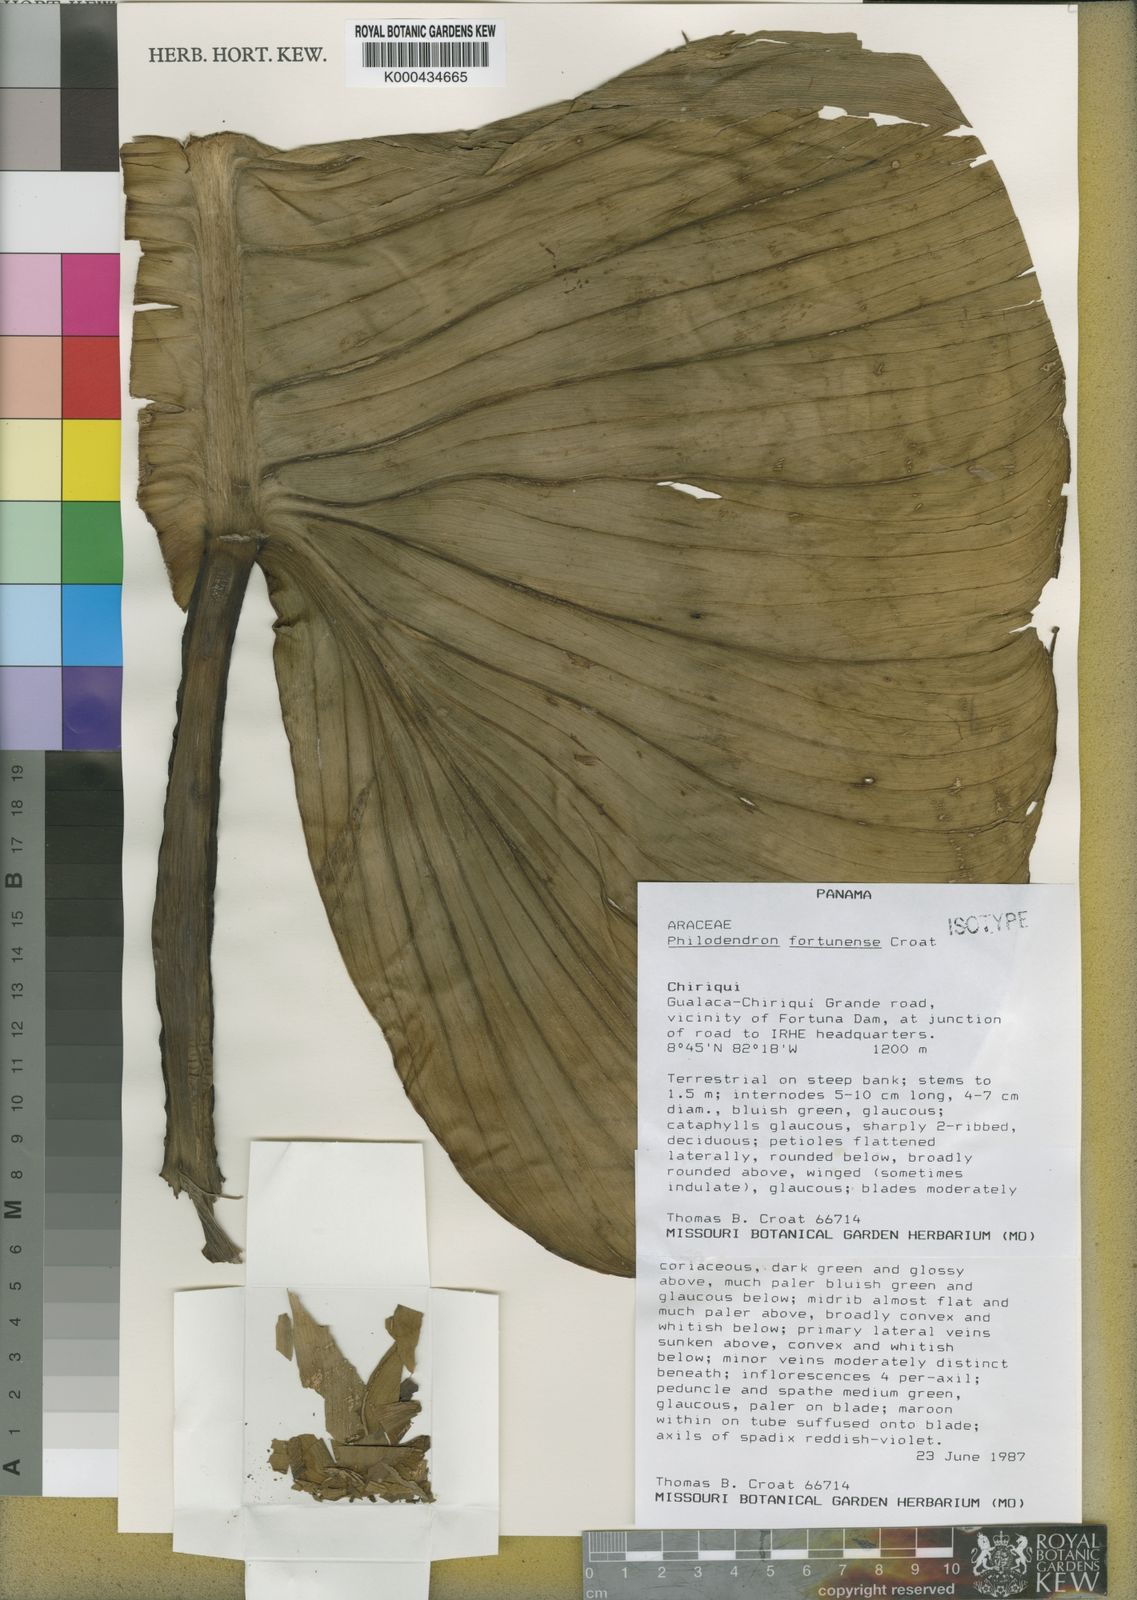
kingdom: Plantae
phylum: Tracheophyta
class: Liliopsida
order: Alismatales
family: Araceae
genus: Philodendron
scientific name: Philodendron fortunense
